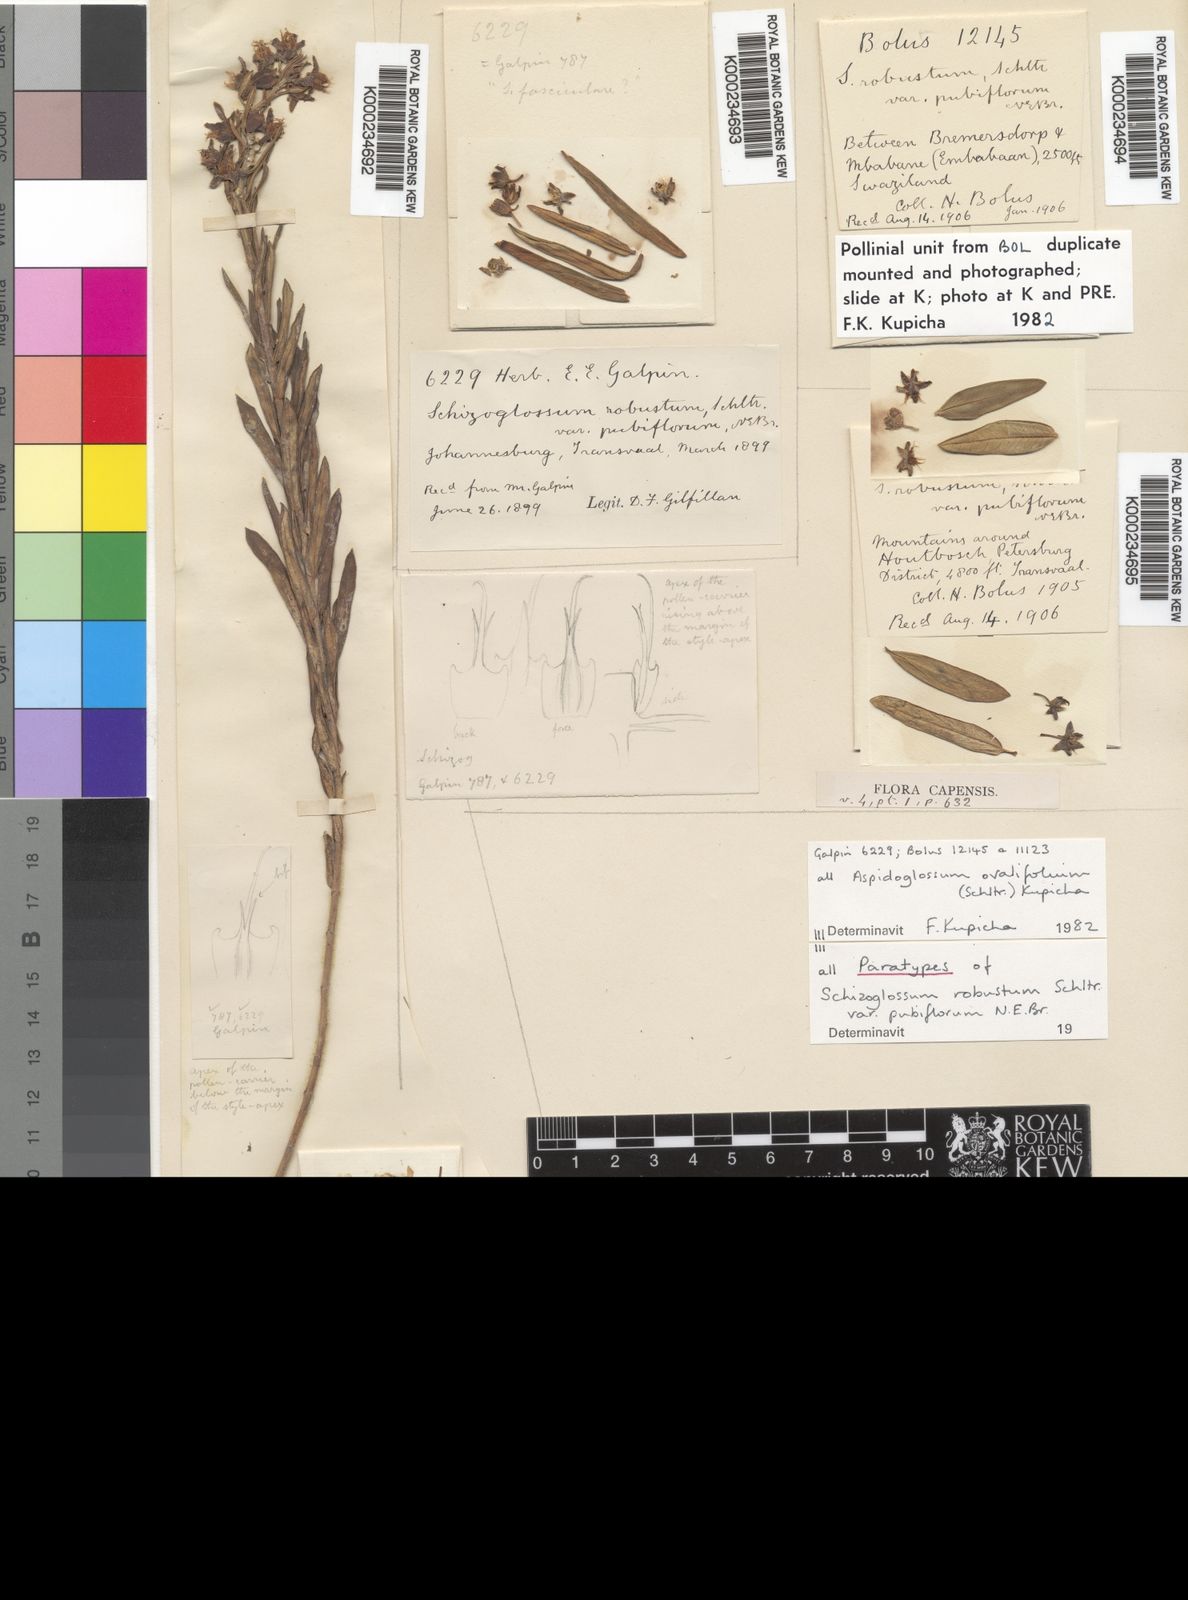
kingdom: Plantae
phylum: Tracheophyta
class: Magnoliopsida
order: Gentianales
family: Apocynaceae
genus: Aspidoglossum
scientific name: Aspidoglossum ovalifolium
